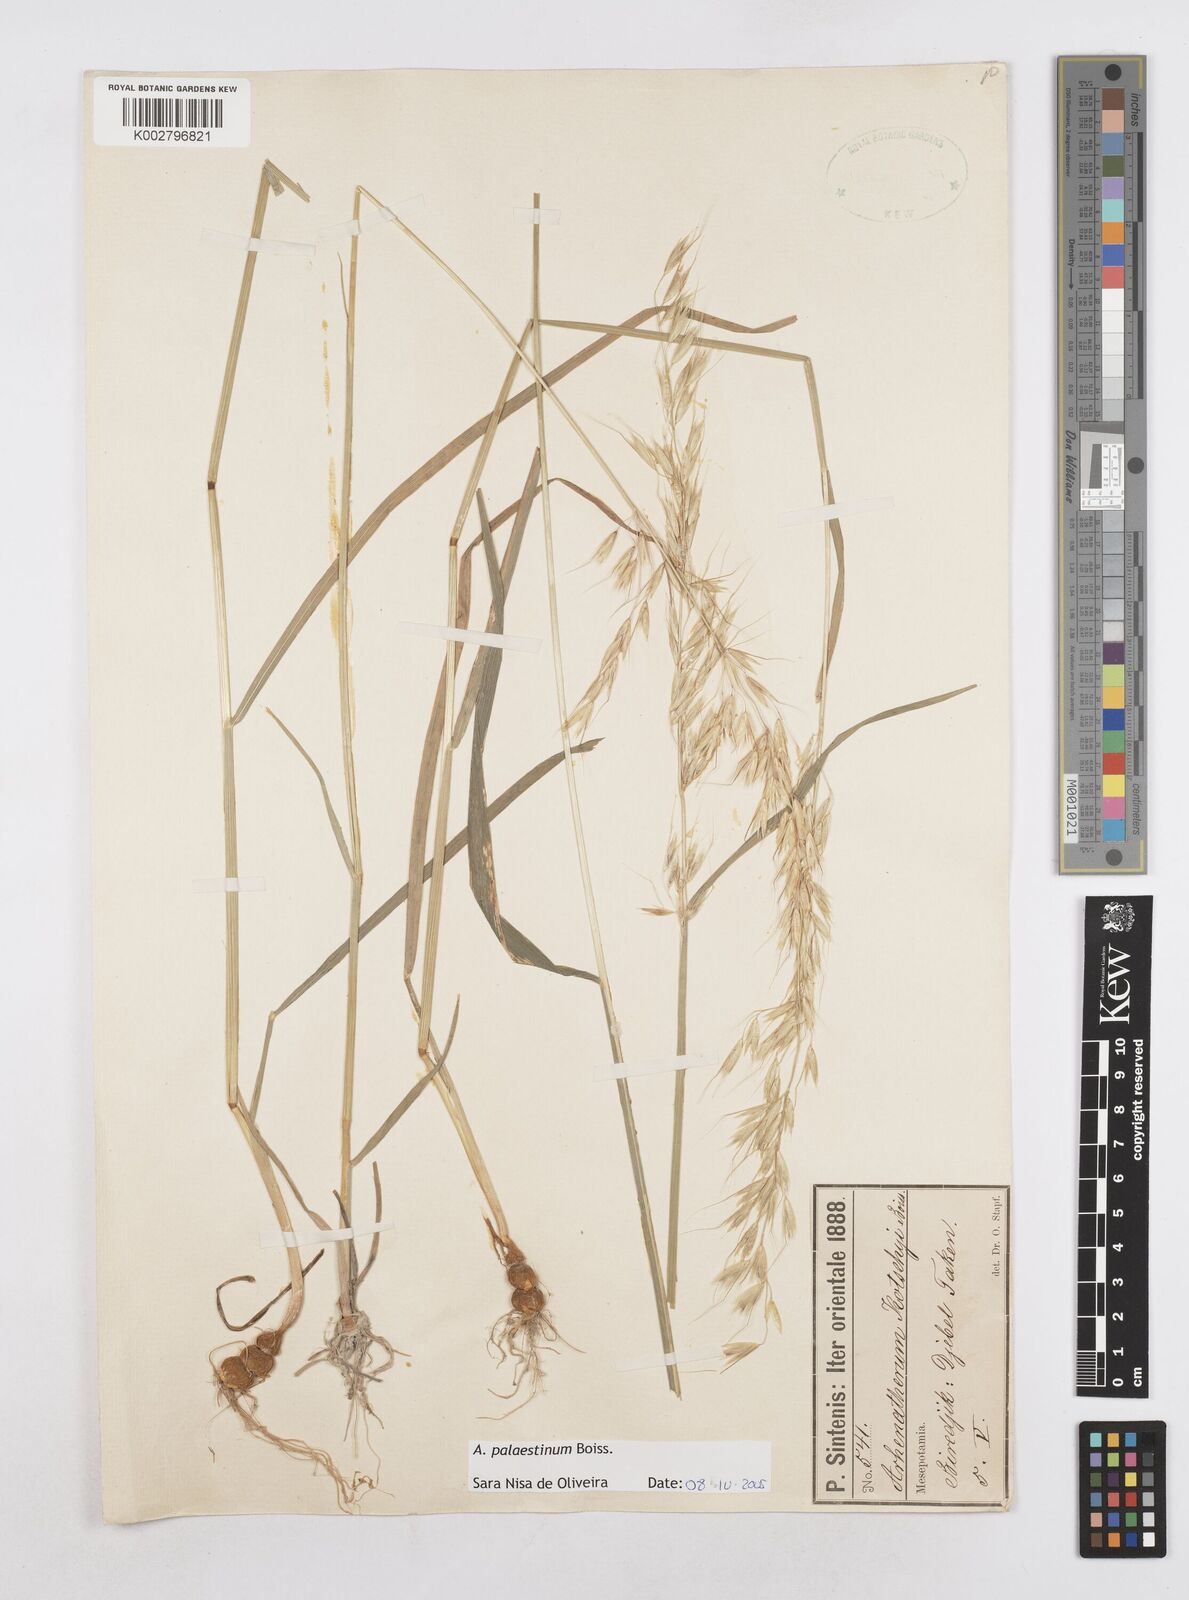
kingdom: Plantae
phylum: Tracheophyta
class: Liliopsida
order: Poales
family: Poaceae
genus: Arrhenatherum
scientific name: Arrhenatherum palaestinum
